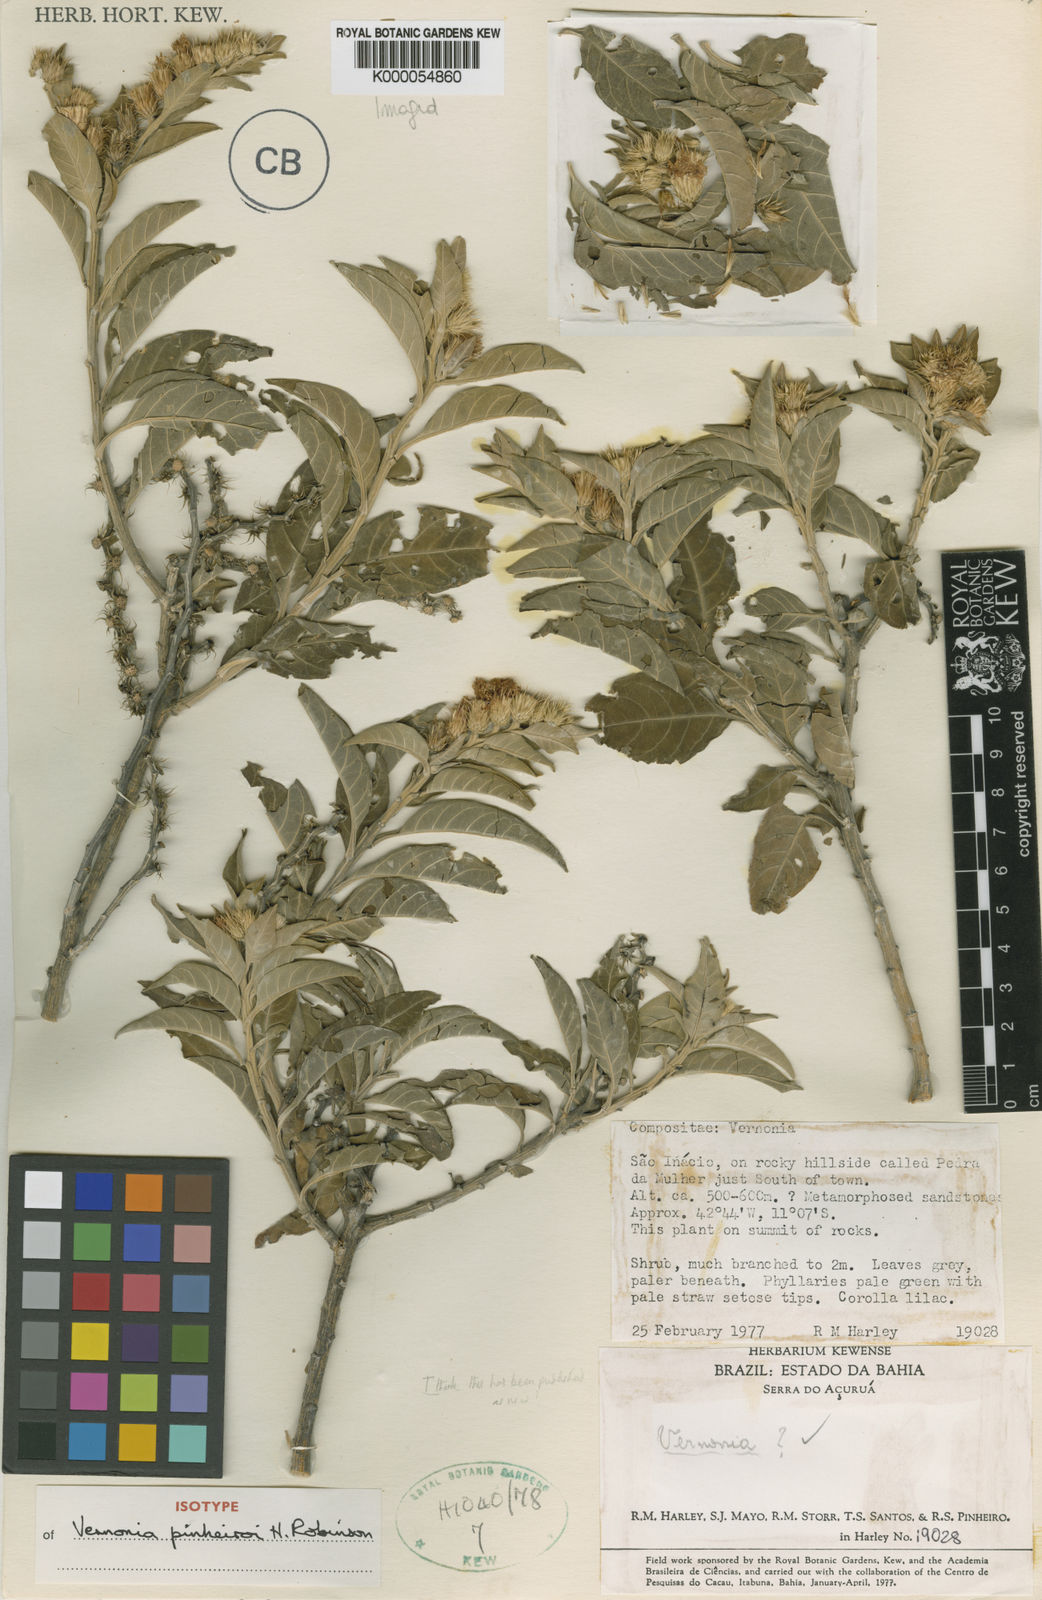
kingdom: Plantae
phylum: Tracheophyta
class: Magnoliopsida
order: Asterales
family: Asteraceae
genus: Lepidaploa
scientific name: Lepidaploa pinheiroi
